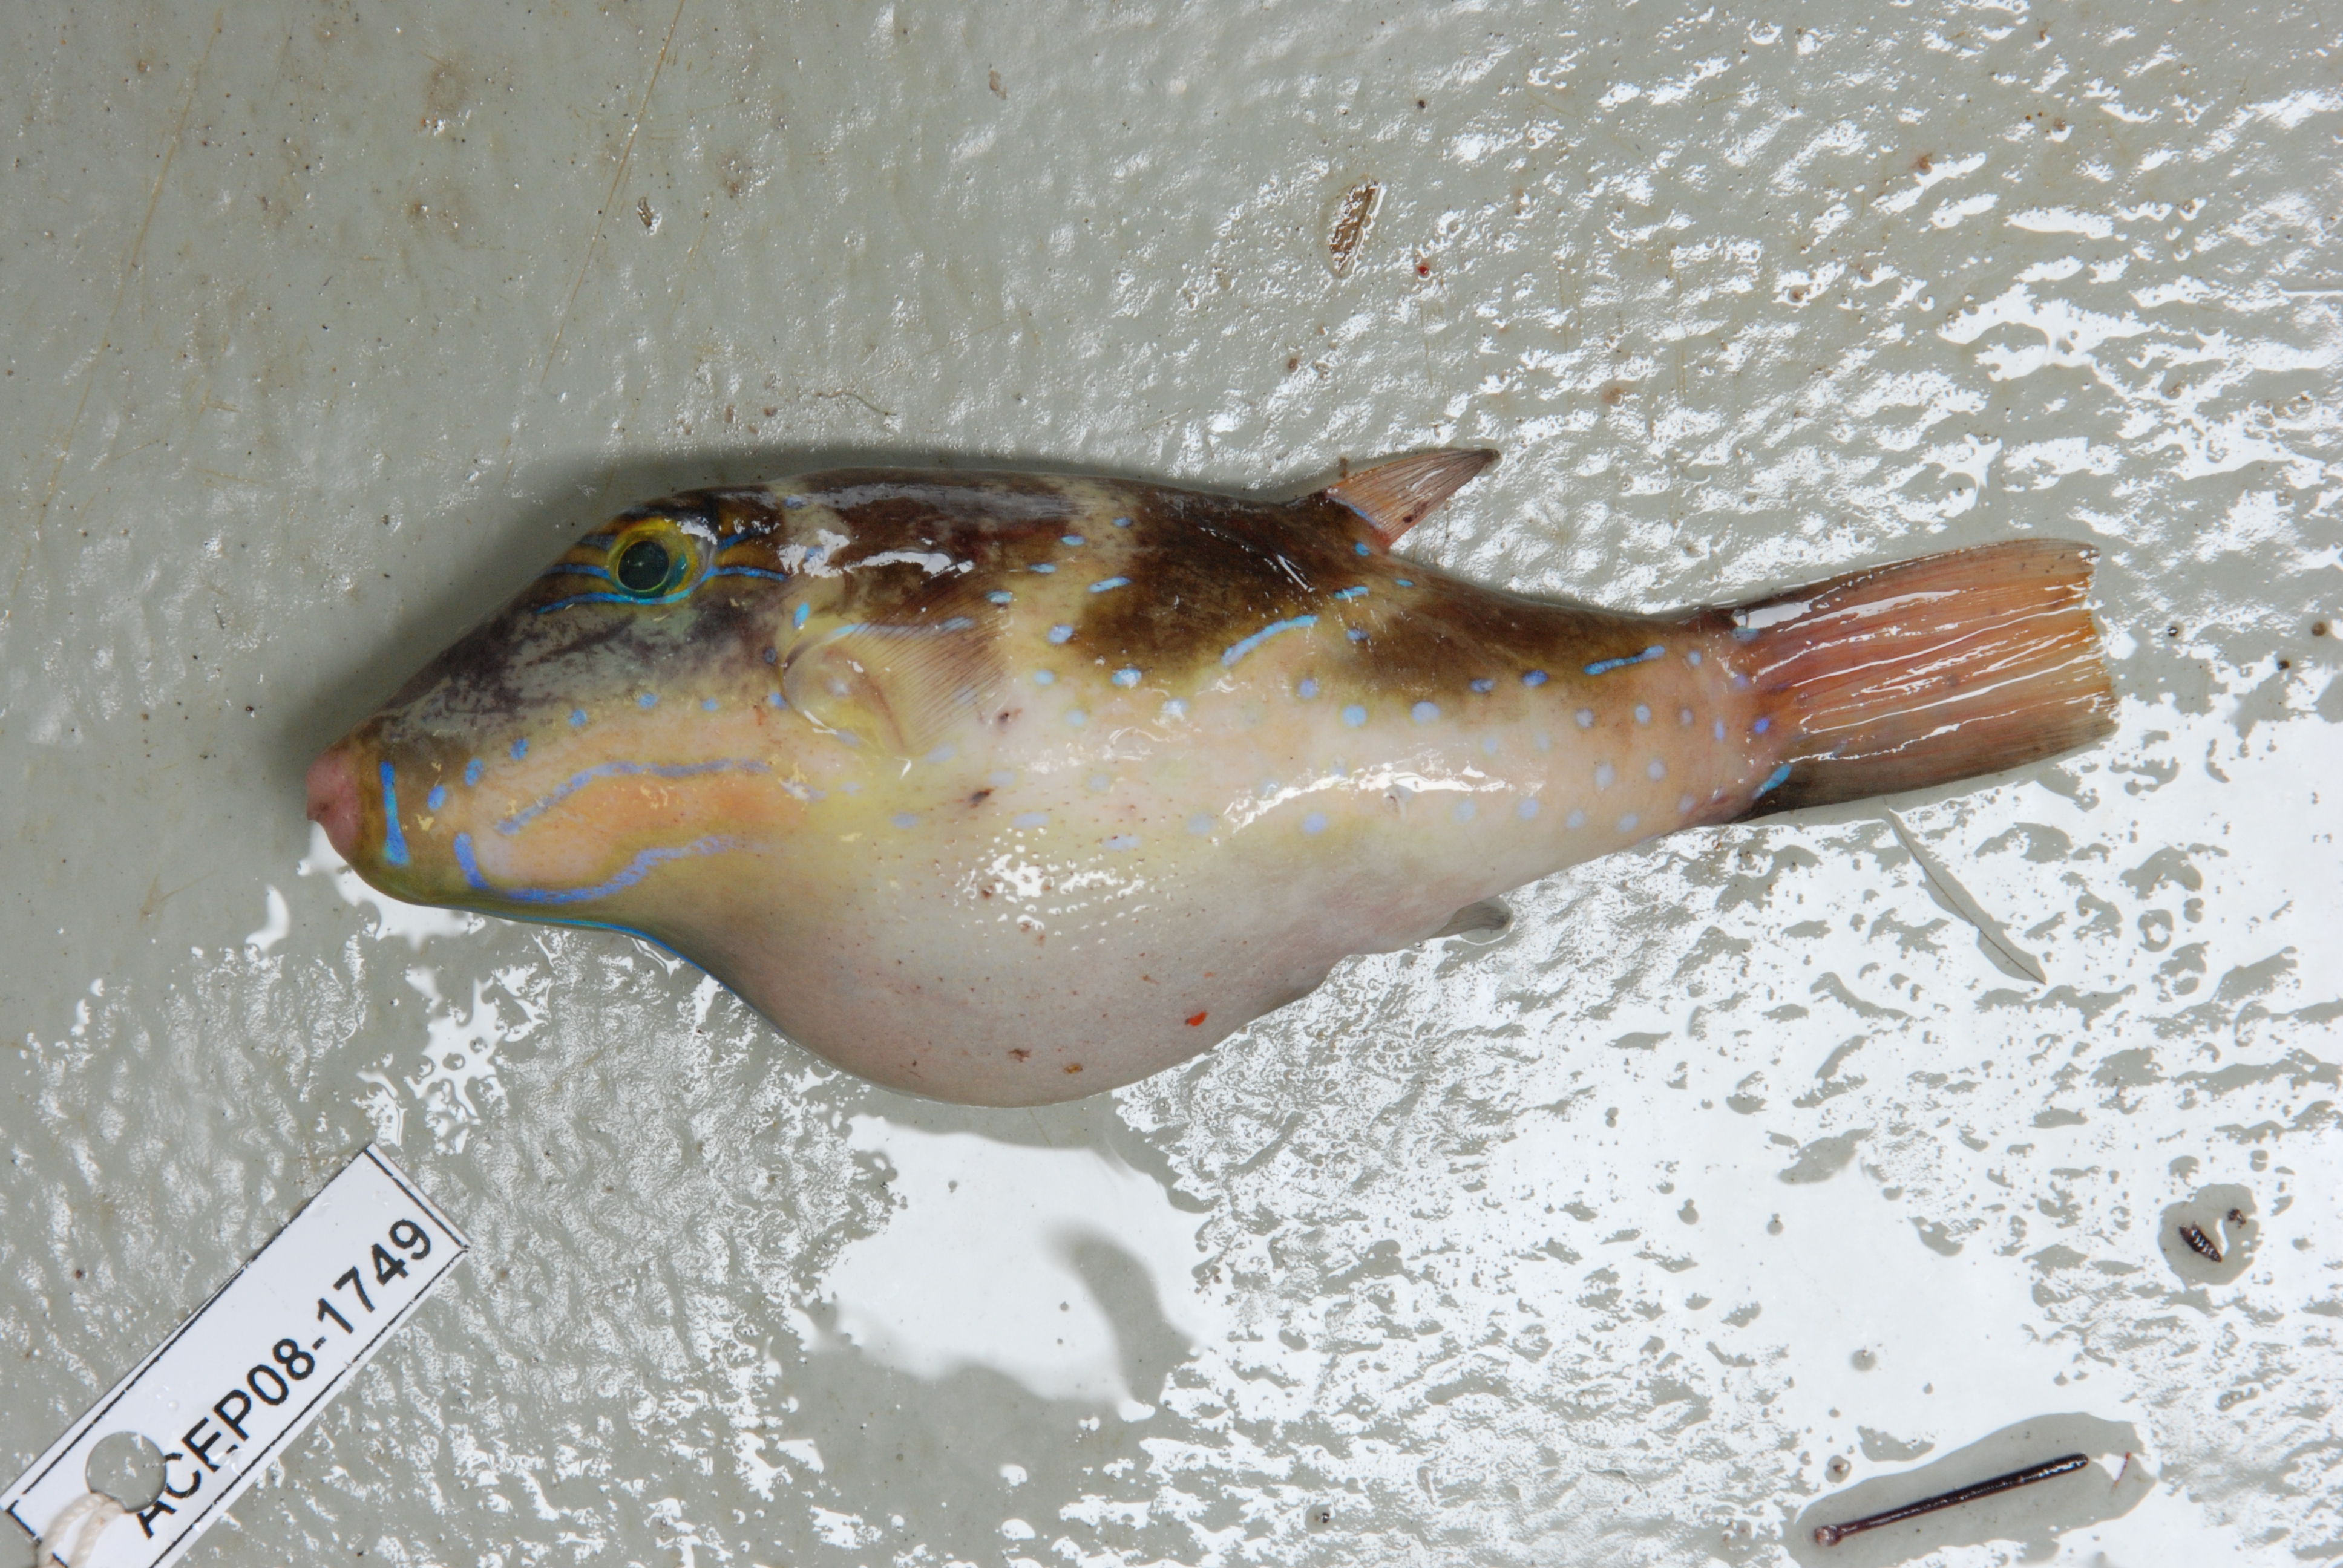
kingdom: Animalia
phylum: Chordata
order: Tetraodontiformes
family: Tetraodontidae
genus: Canthigaster
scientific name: Canthigaster coronata
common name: Crown toby
